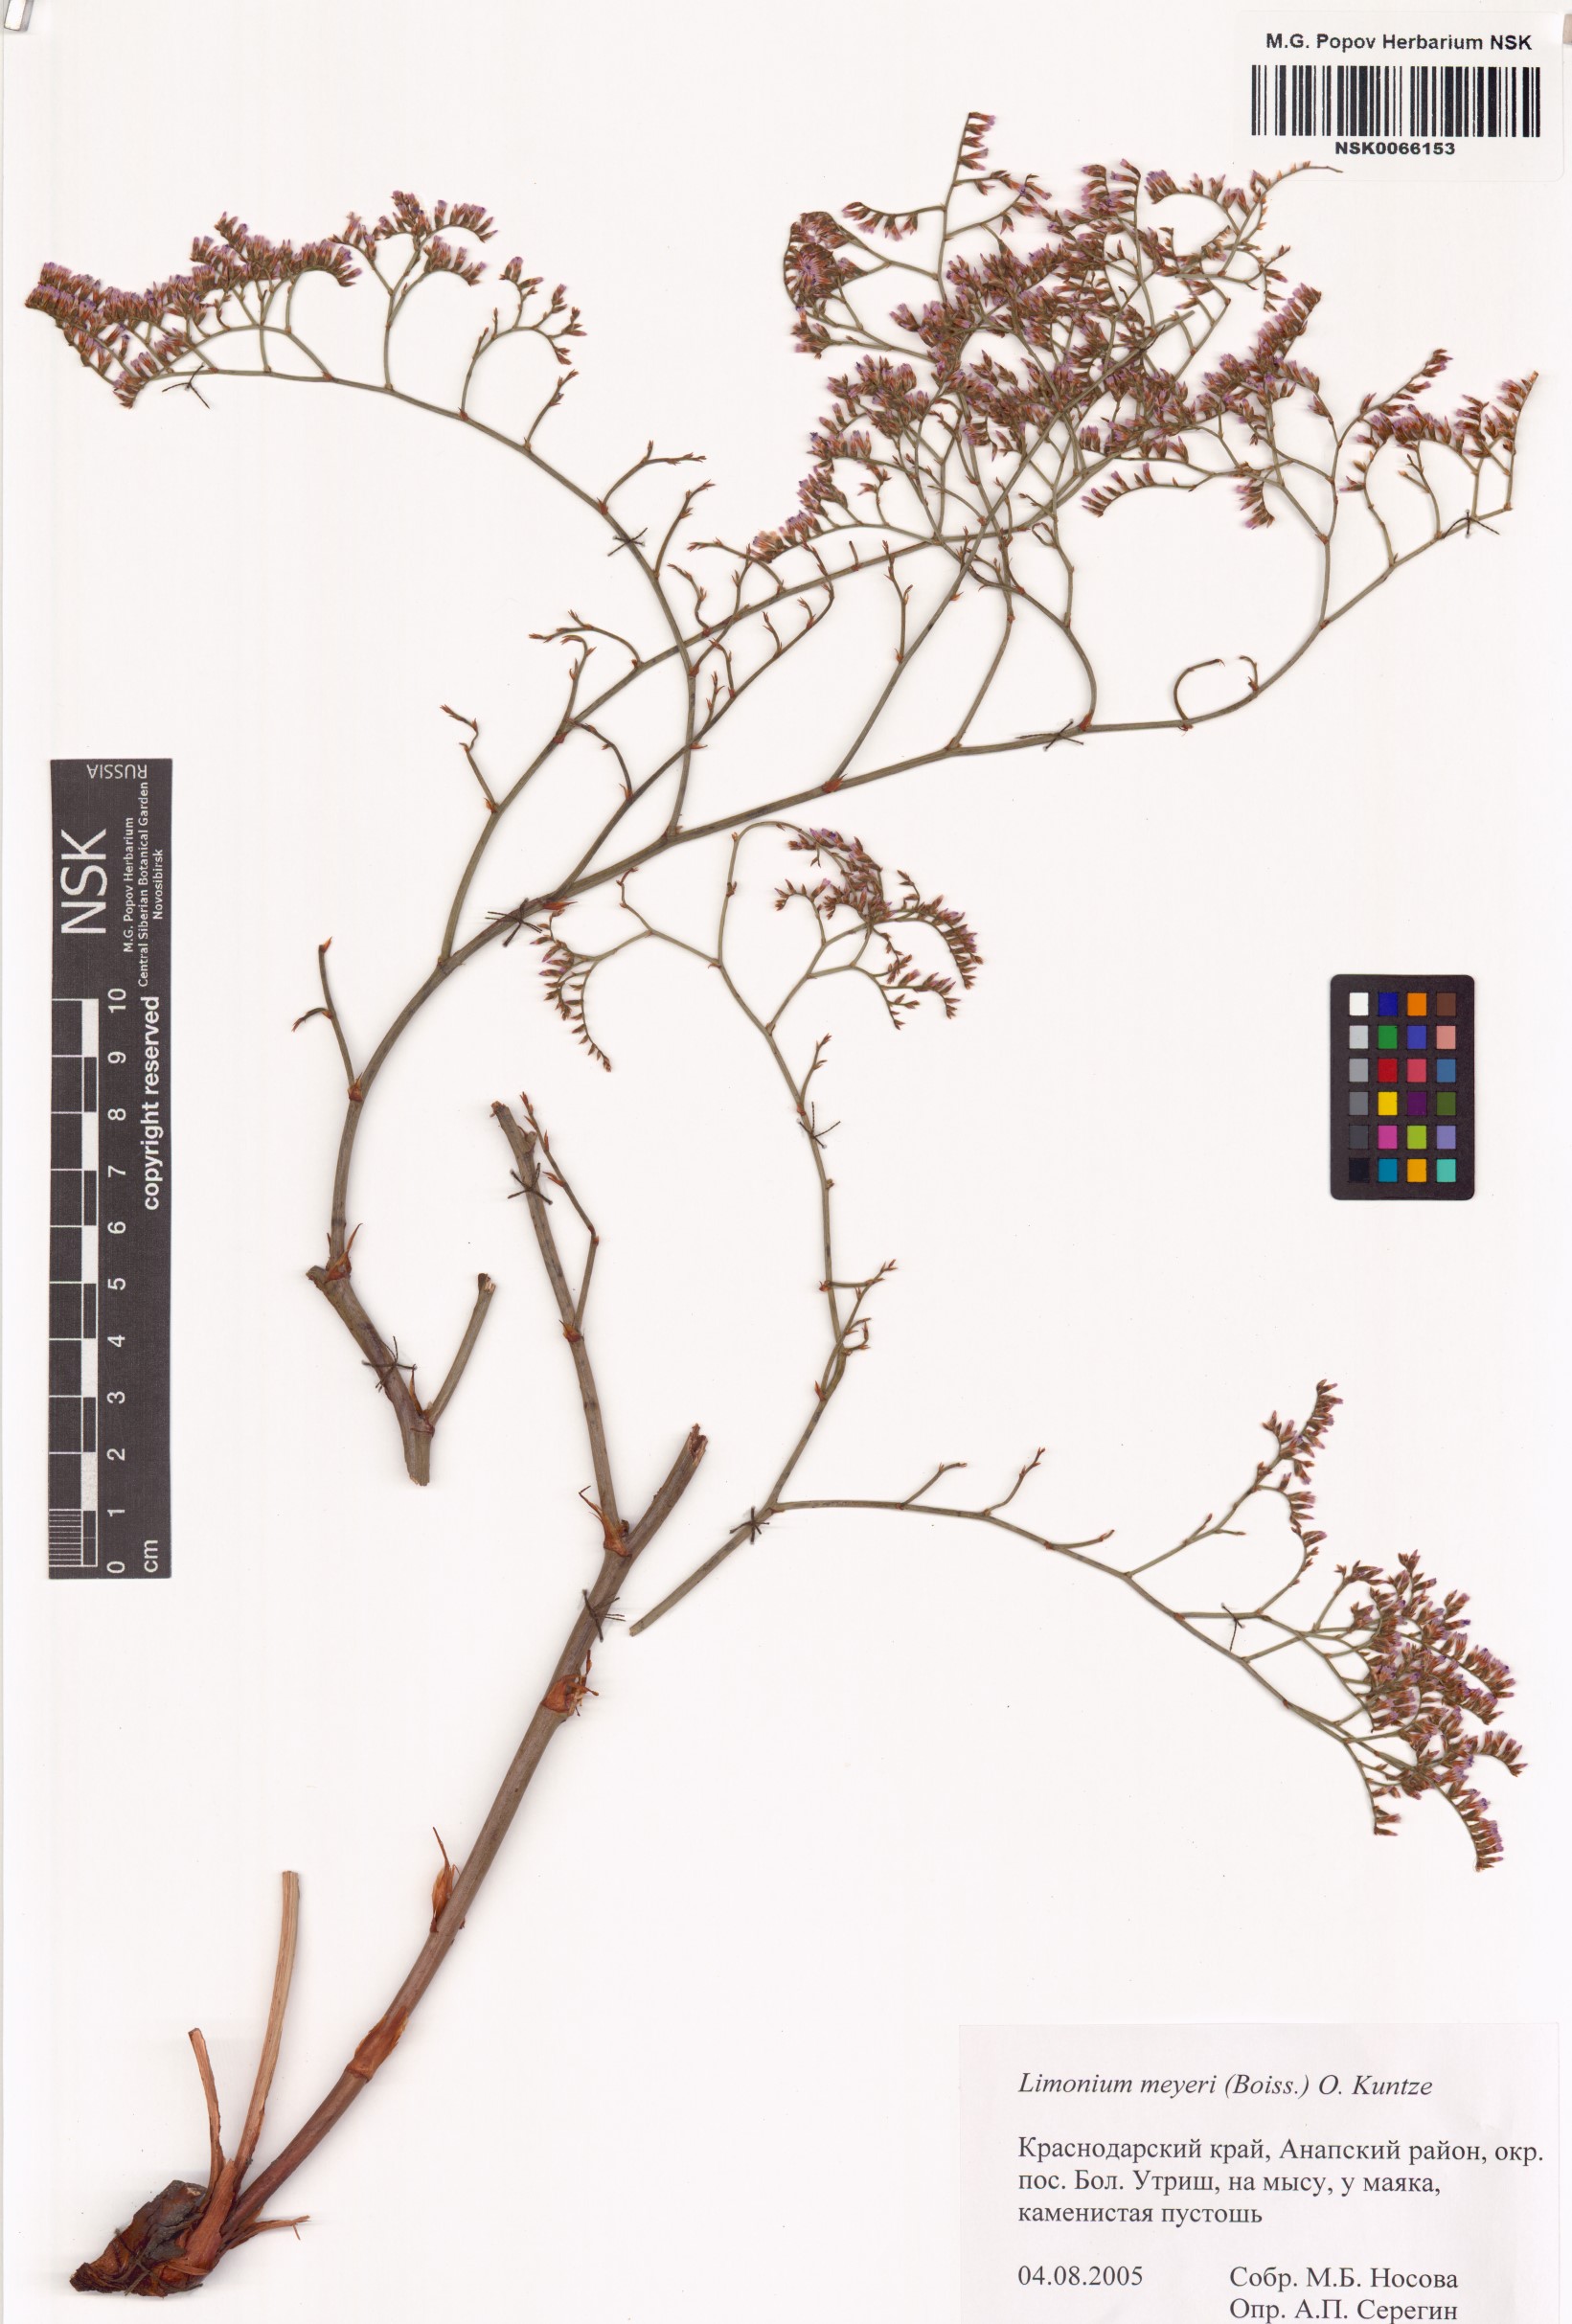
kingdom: Plantae
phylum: Tracheophyta
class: Magnoliopsida
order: Caryophyllales
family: Plumbaginaceae
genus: Limonium
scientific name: Limonium scoparium
